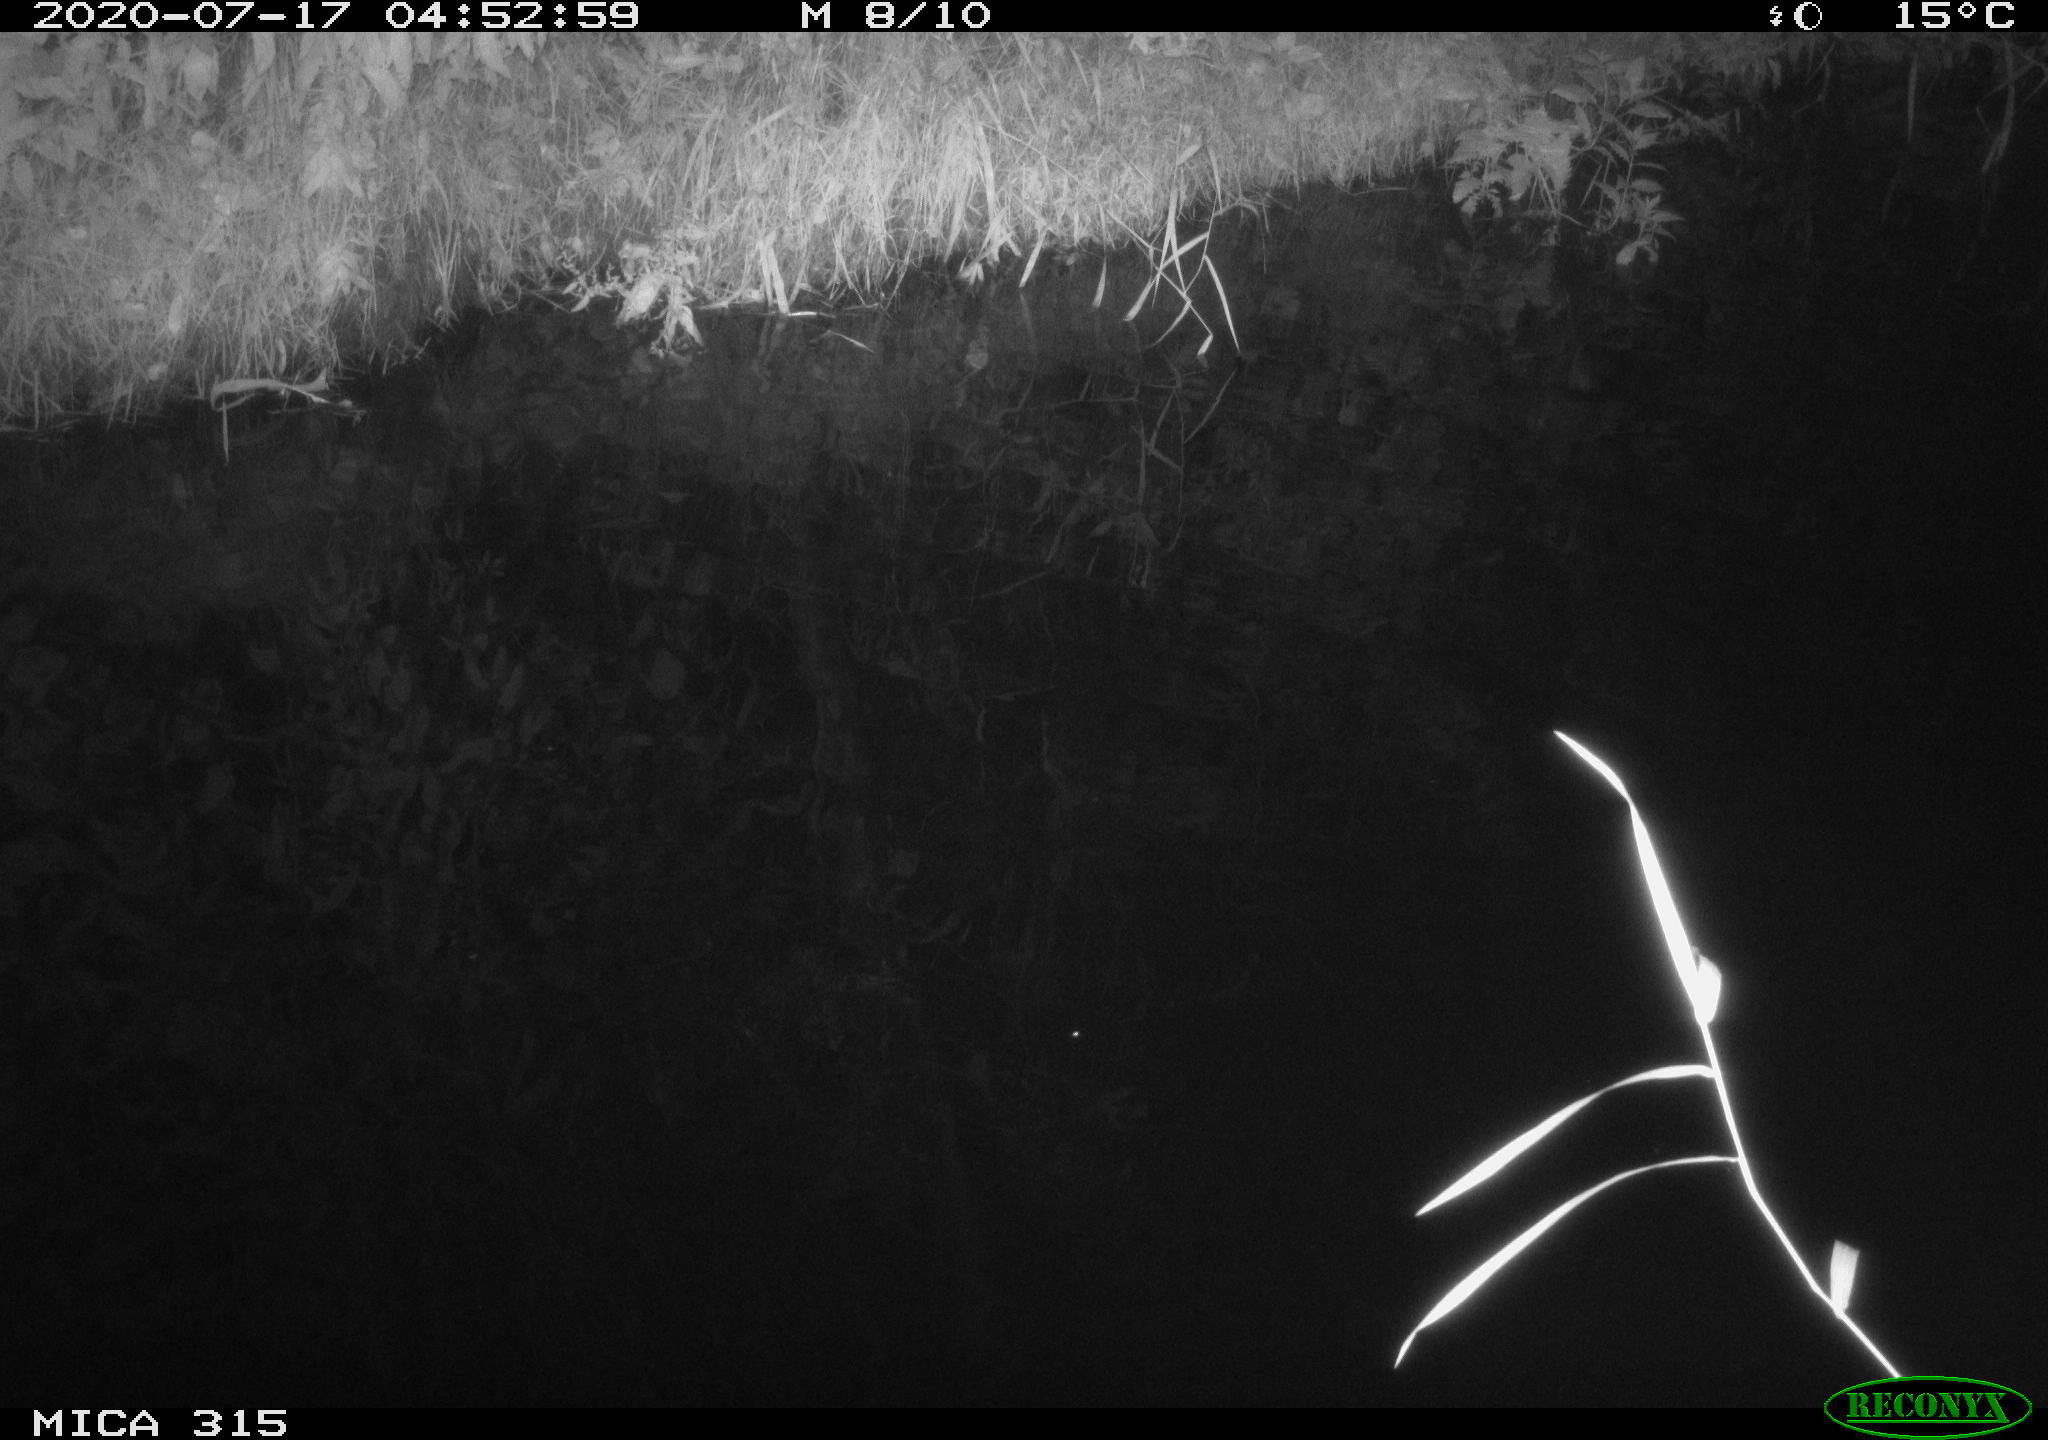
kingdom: Animalia
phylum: Chordata
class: Aves
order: Anseriformes
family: Anatidae
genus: Anas
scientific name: Anas platyrhynchos
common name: Mallard
